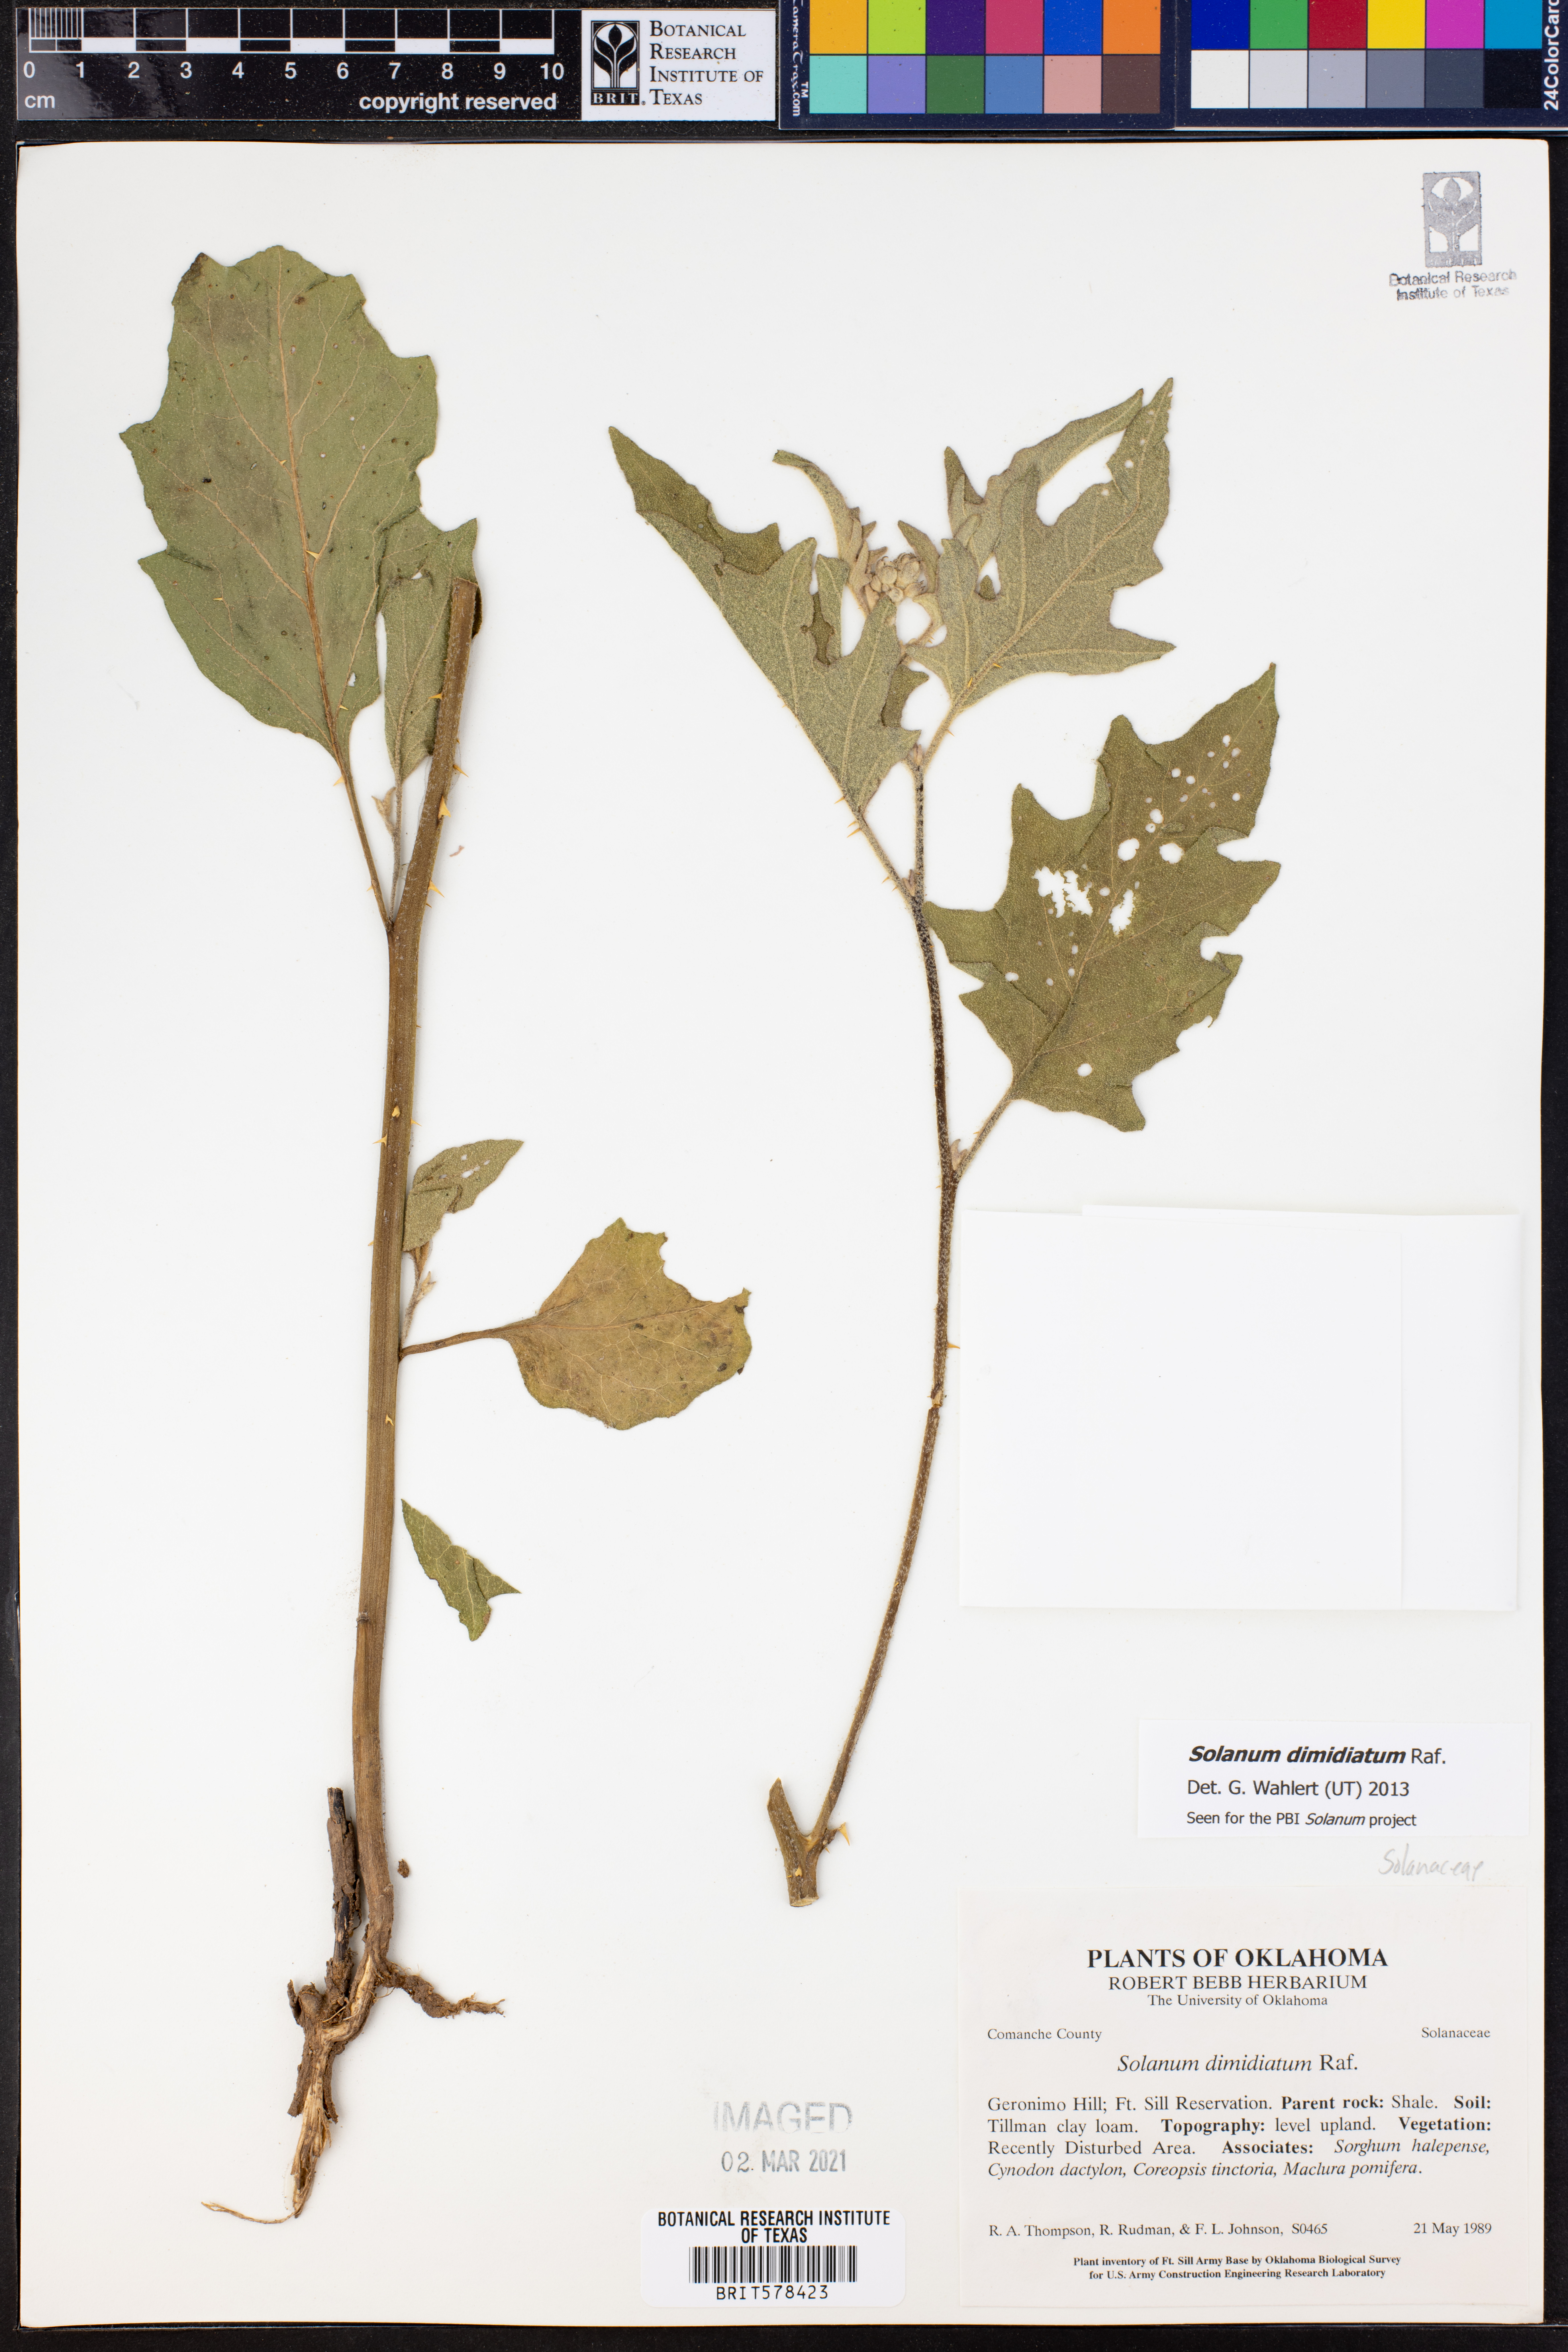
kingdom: Plantae
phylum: Tracheophyta
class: Magnoliopsida
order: Solanales
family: Solanaceae
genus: Solanum
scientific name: Solanum dimidiatum
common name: Carolina horse-nettle
